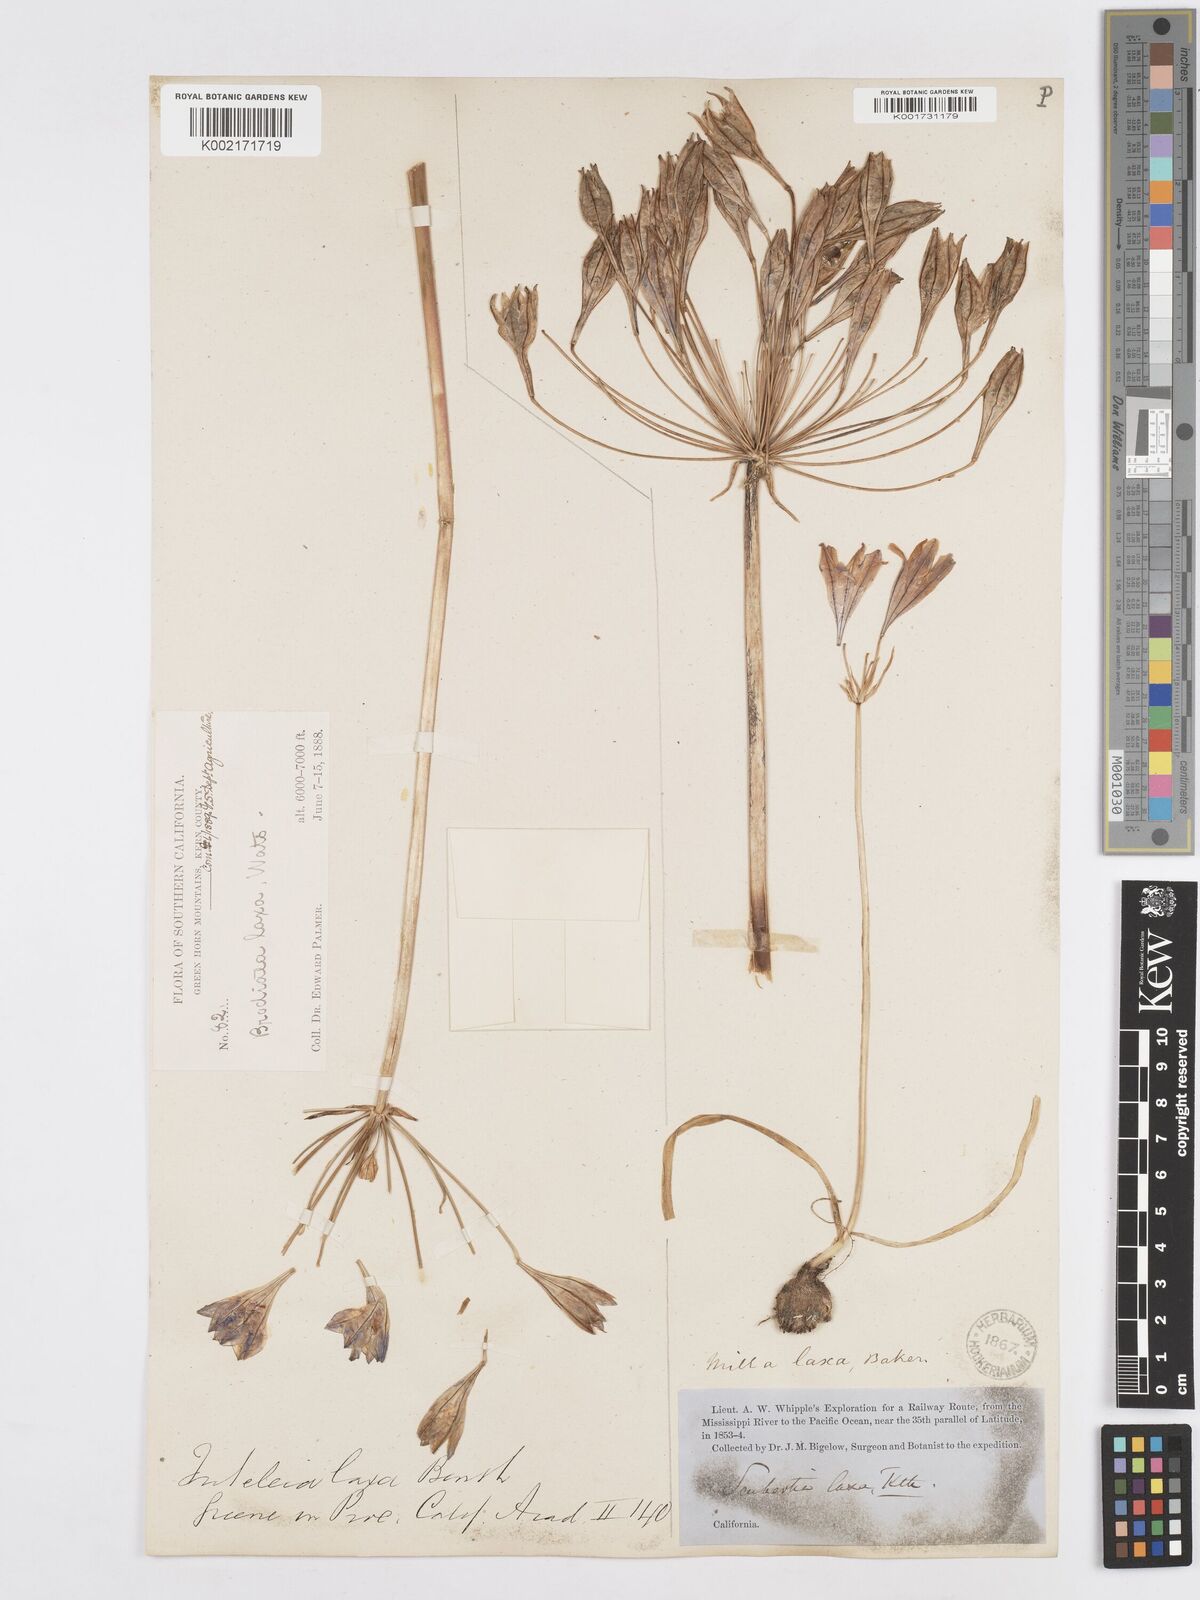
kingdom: Plantae
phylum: Tracheophyta
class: Liliopsida
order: Asparagales
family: Asparagaceae
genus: Triteleia
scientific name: Triteleia laxa
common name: Triplet-lily
